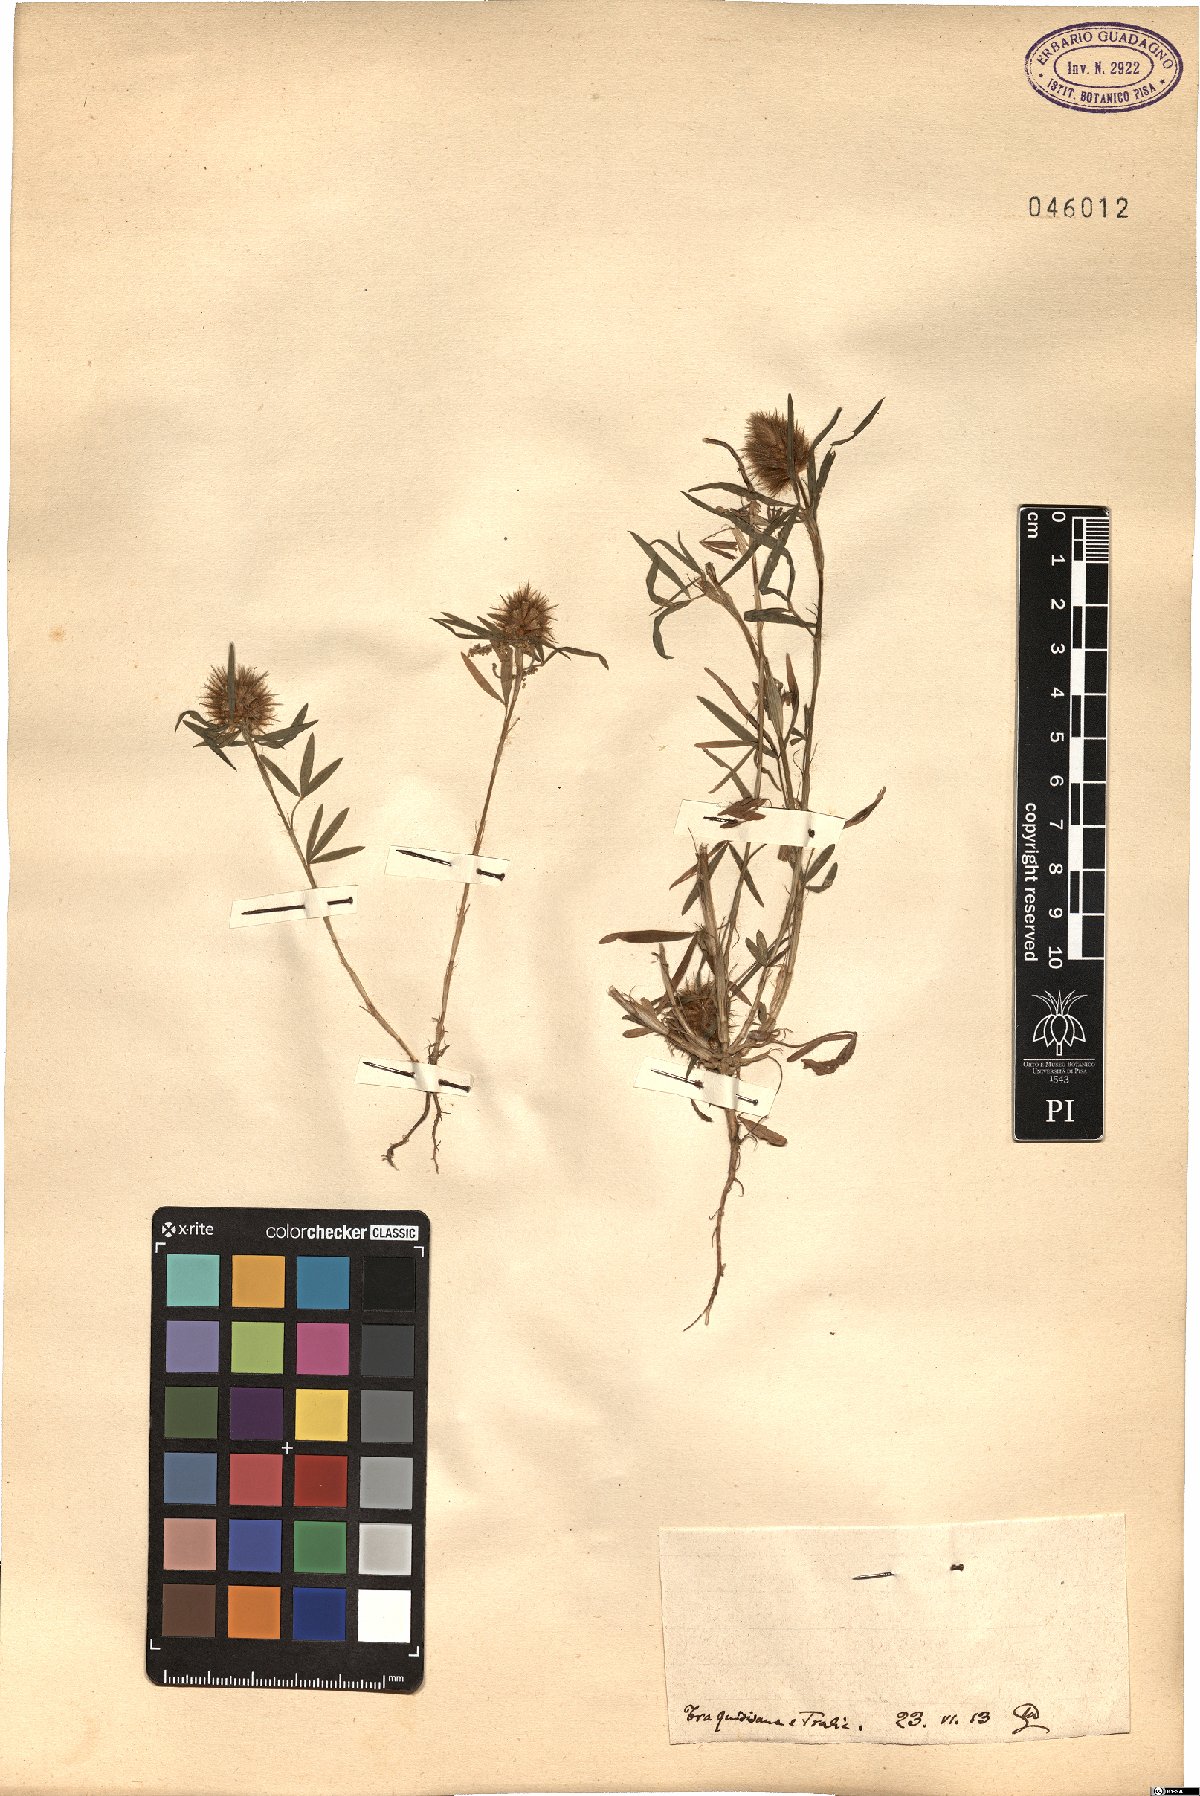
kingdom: Plantae
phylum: Tracheophyta
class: Magnoliopsida
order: Fabales
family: Fabaceae
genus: Trifolium
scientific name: Trifolium
